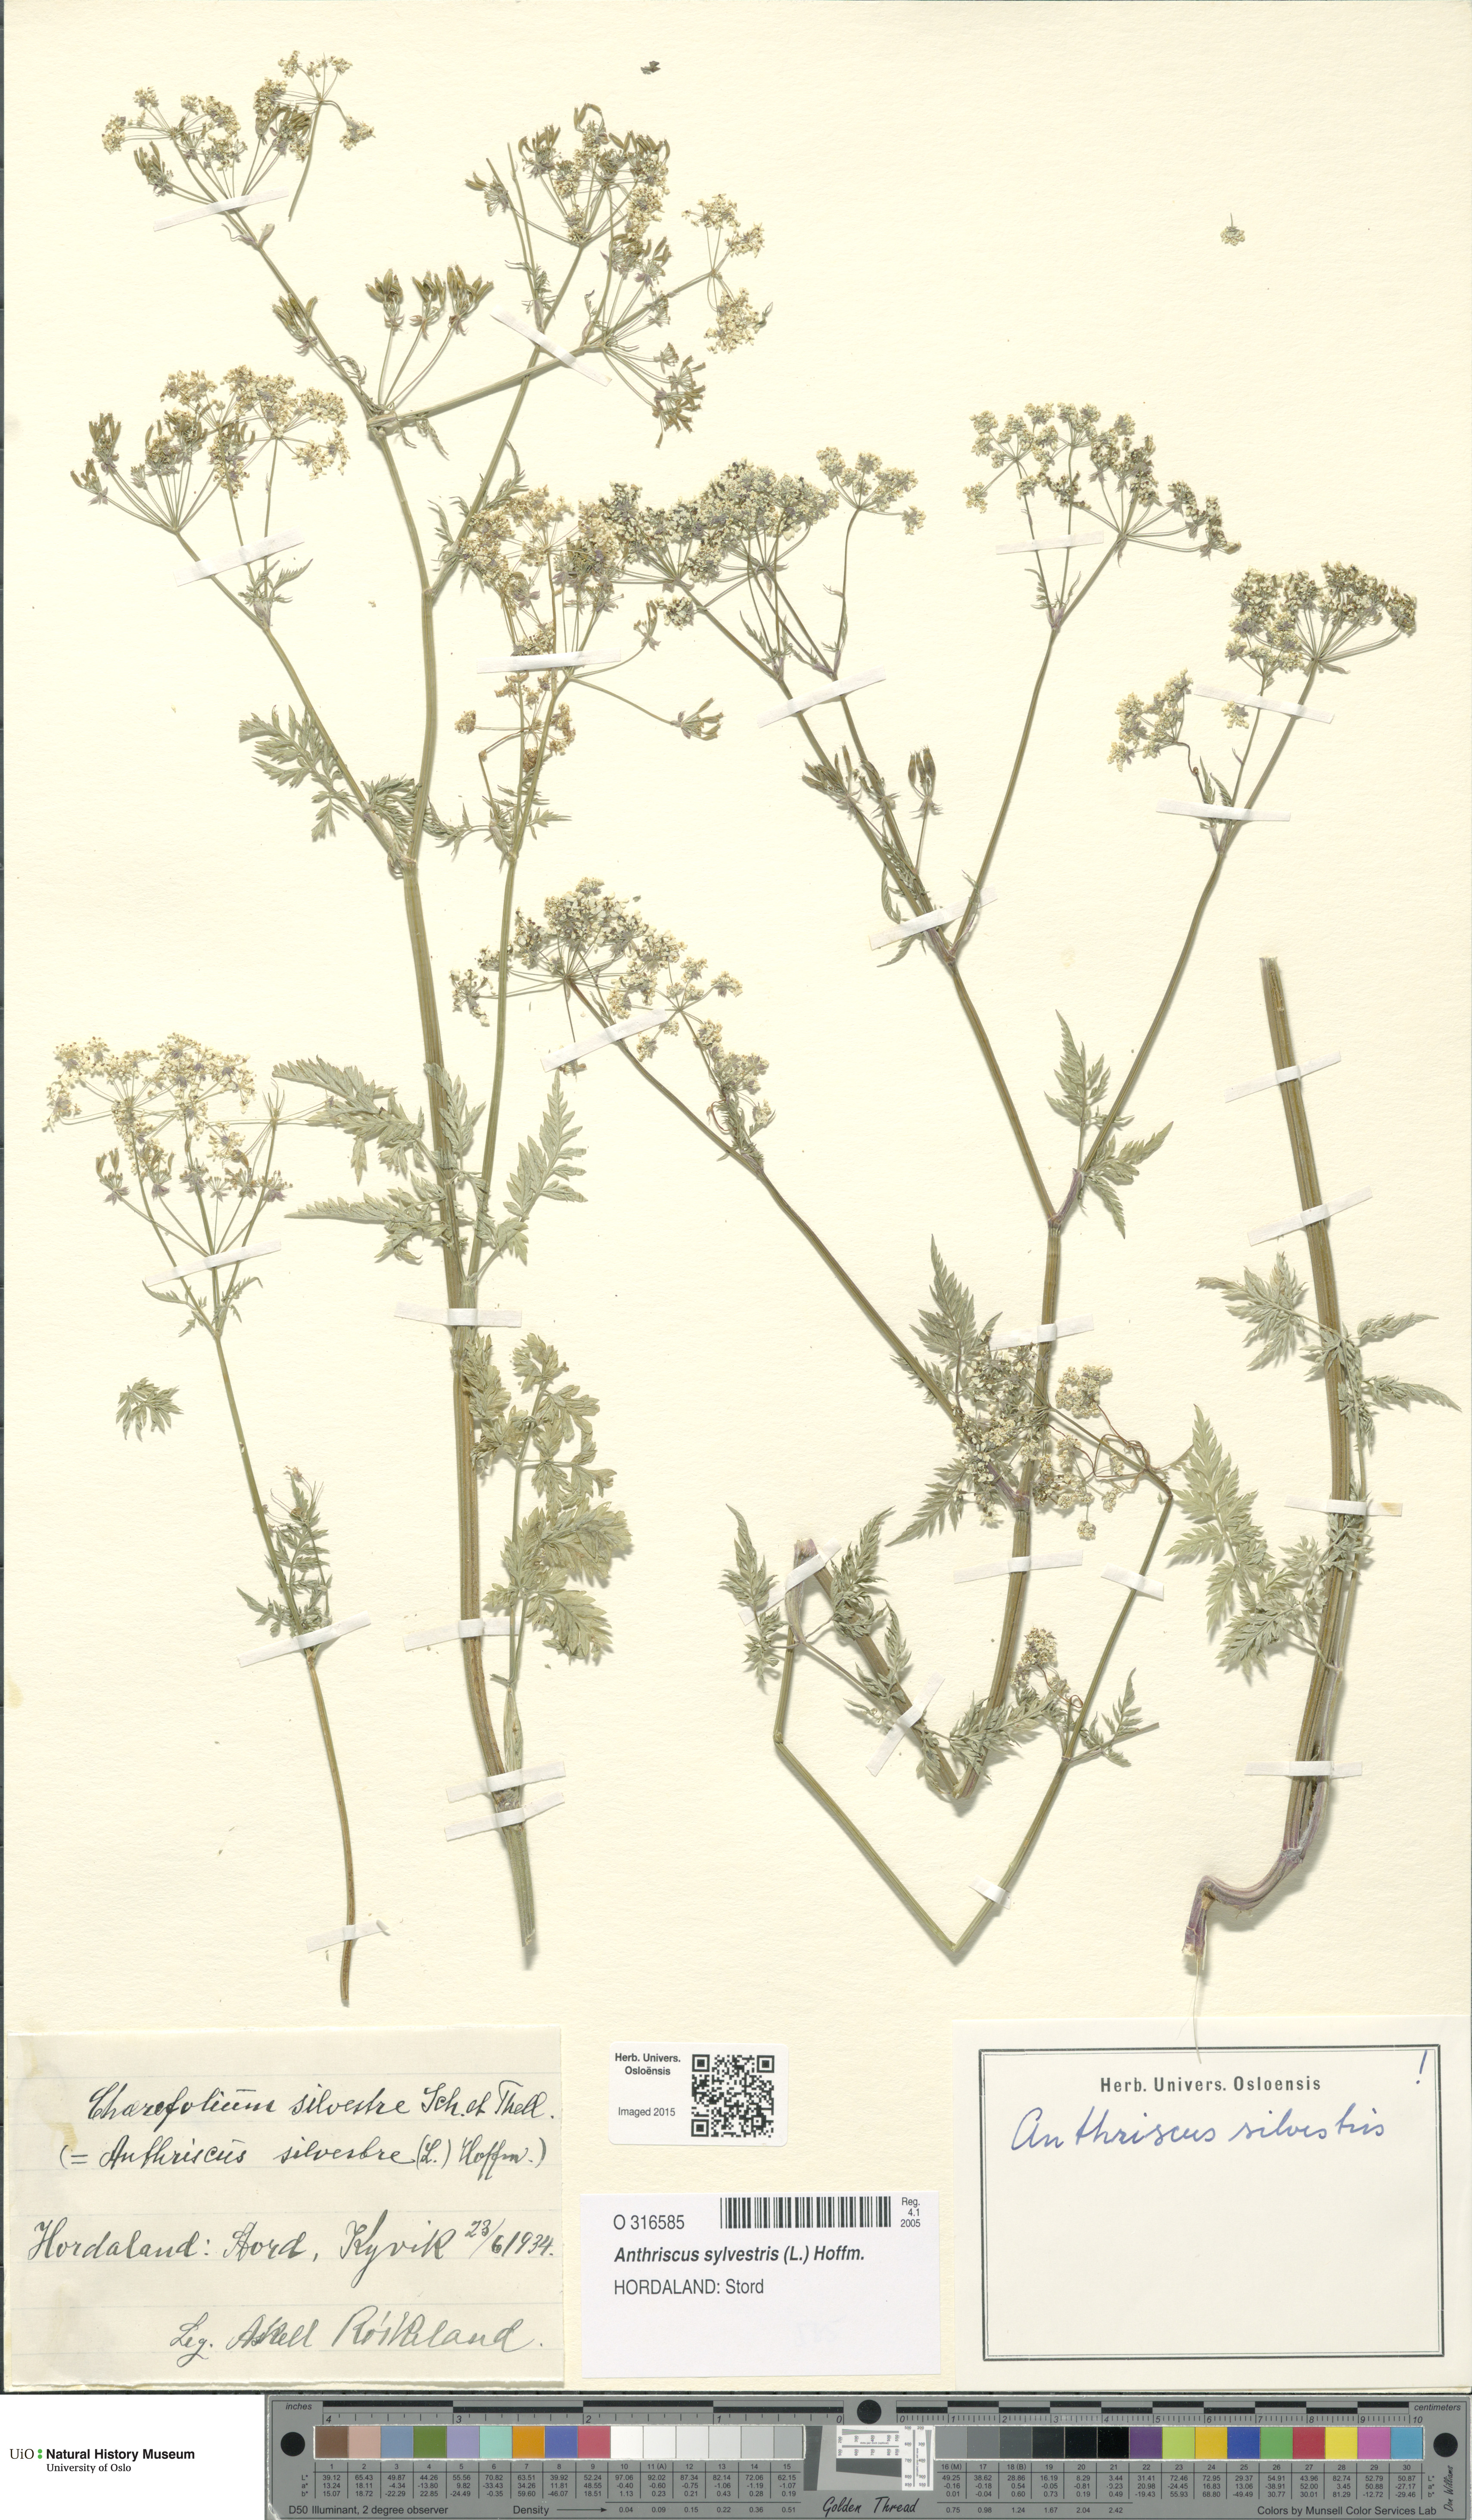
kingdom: Plantae
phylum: Tracheophyta
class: Magnoliopsida
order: Apiales
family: Apiaceae
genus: Anthriscus
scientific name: Anthriscus sylvestris
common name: Cow parsley
